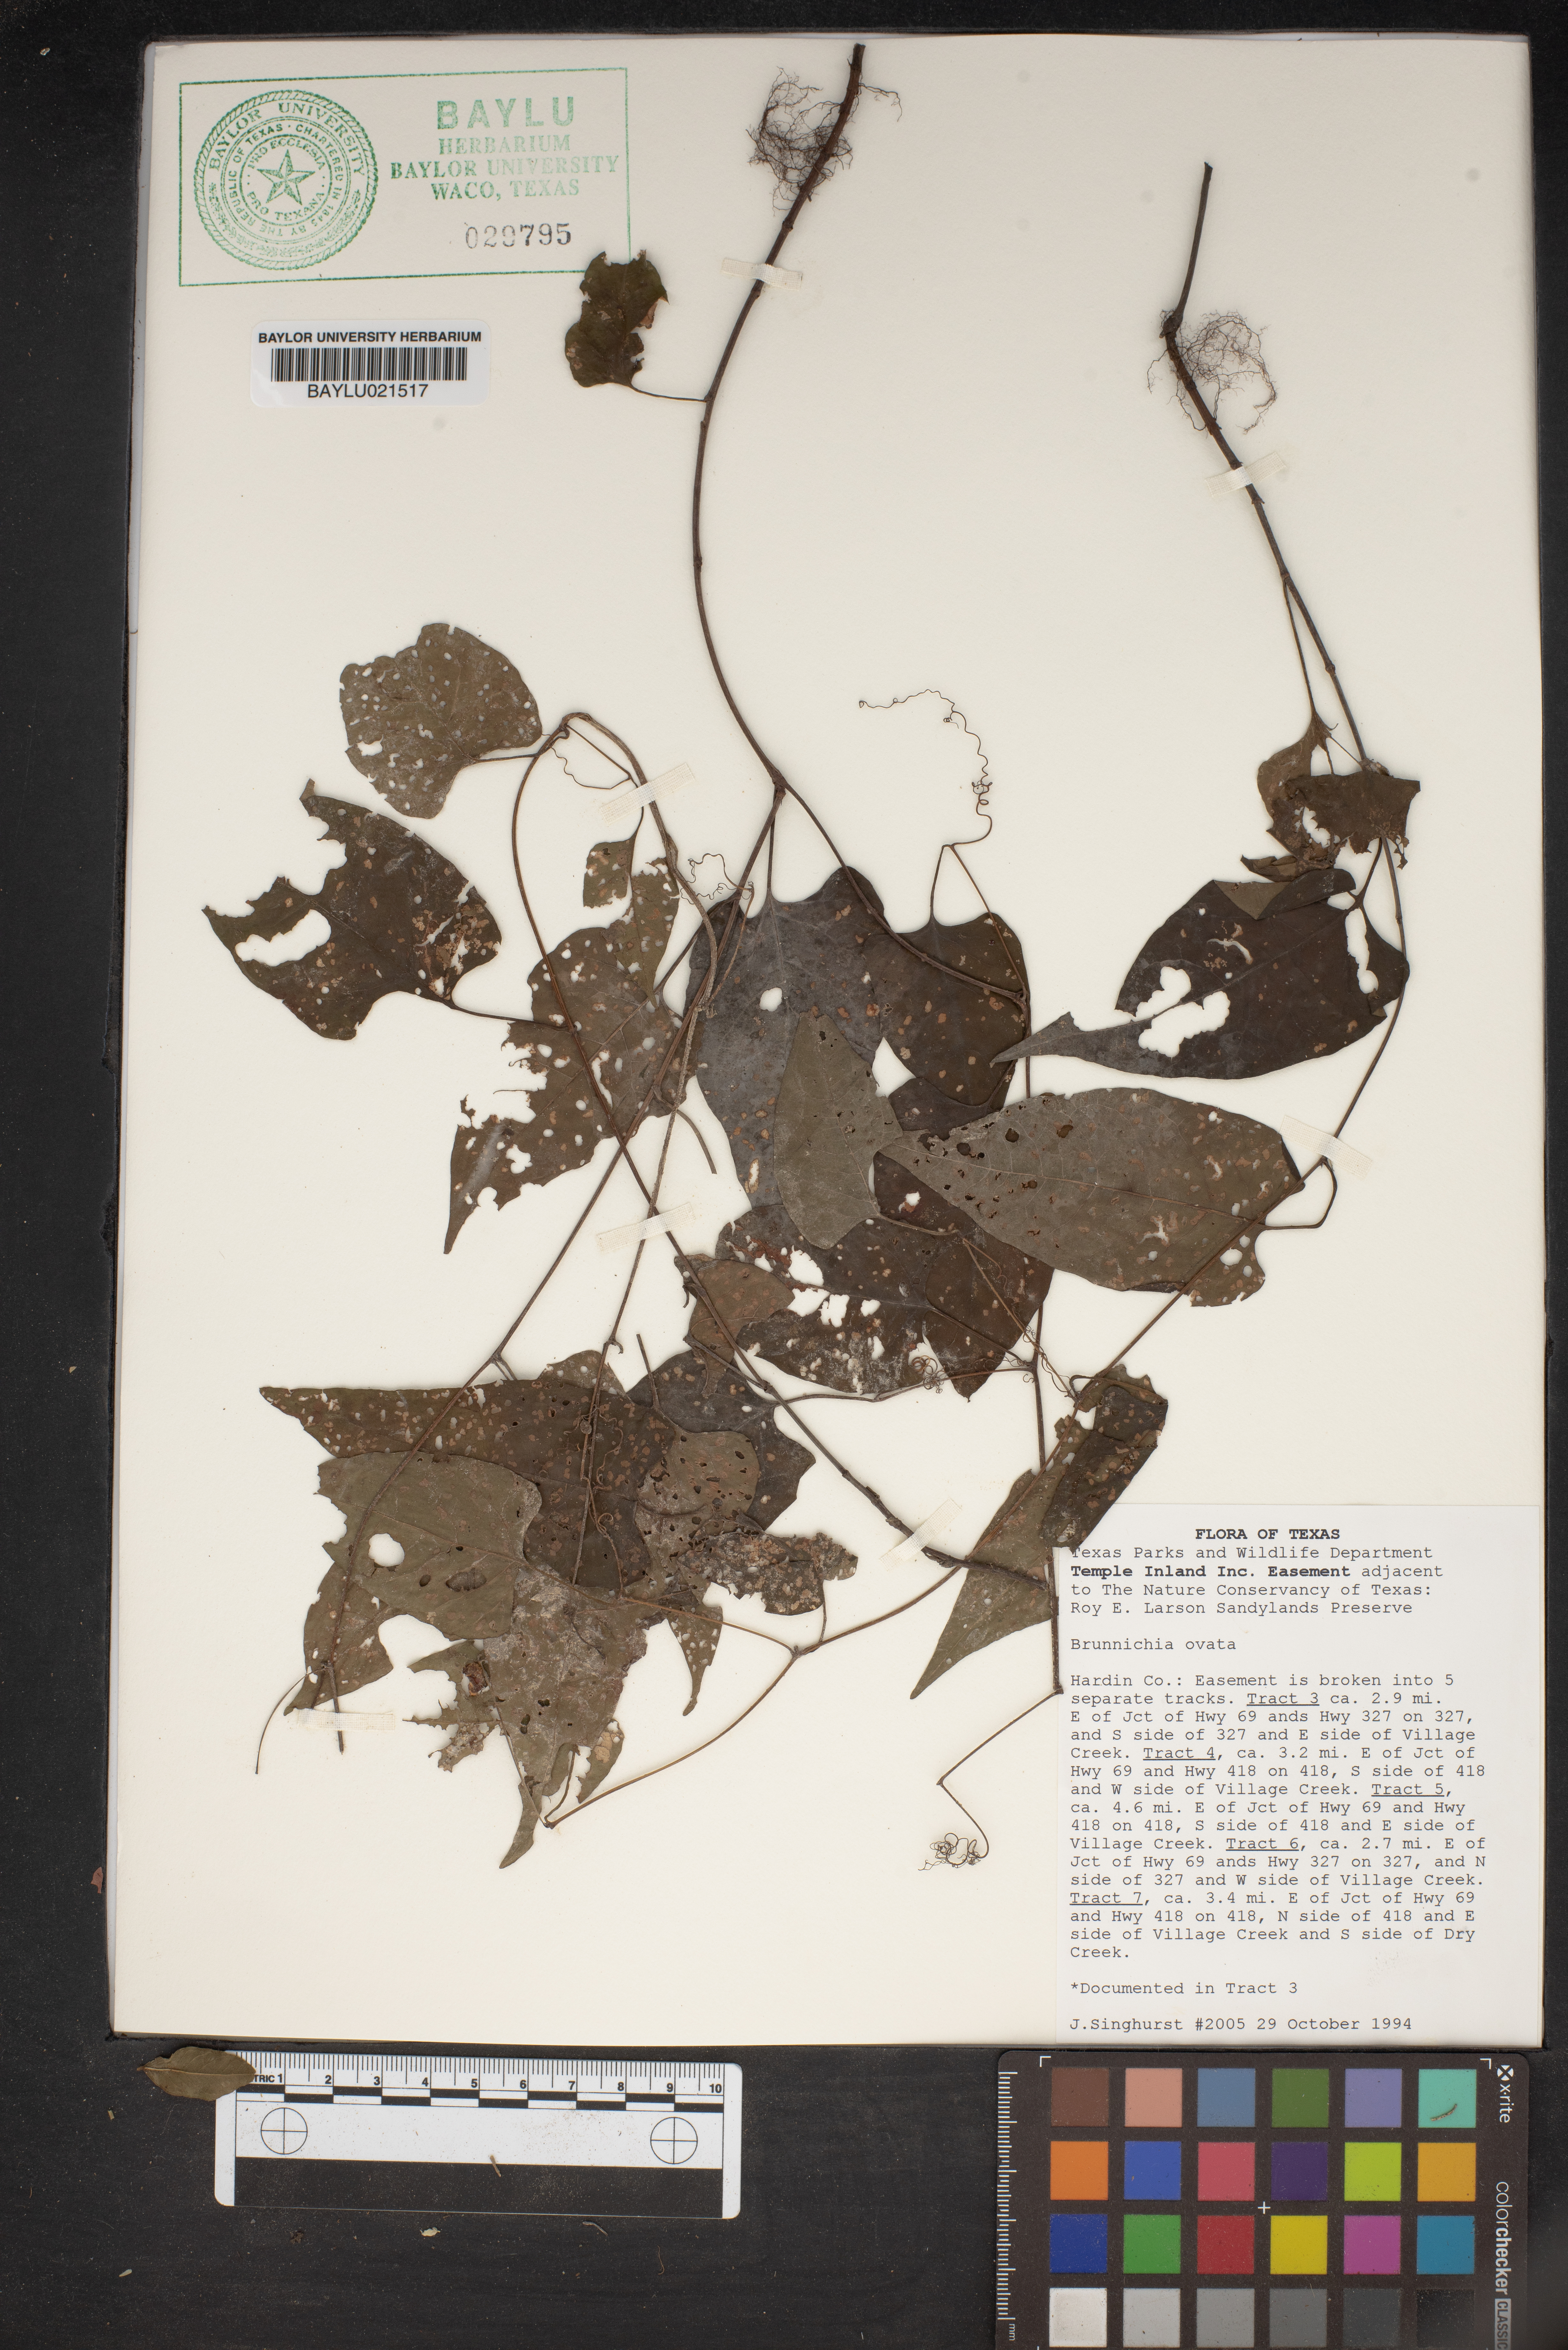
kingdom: Plantae
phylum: Tracheophyta
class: Magnoliopsida
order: Caryophyllales
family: Polygonaceae
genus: Brunnichia
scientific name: Brunnichia ovata
